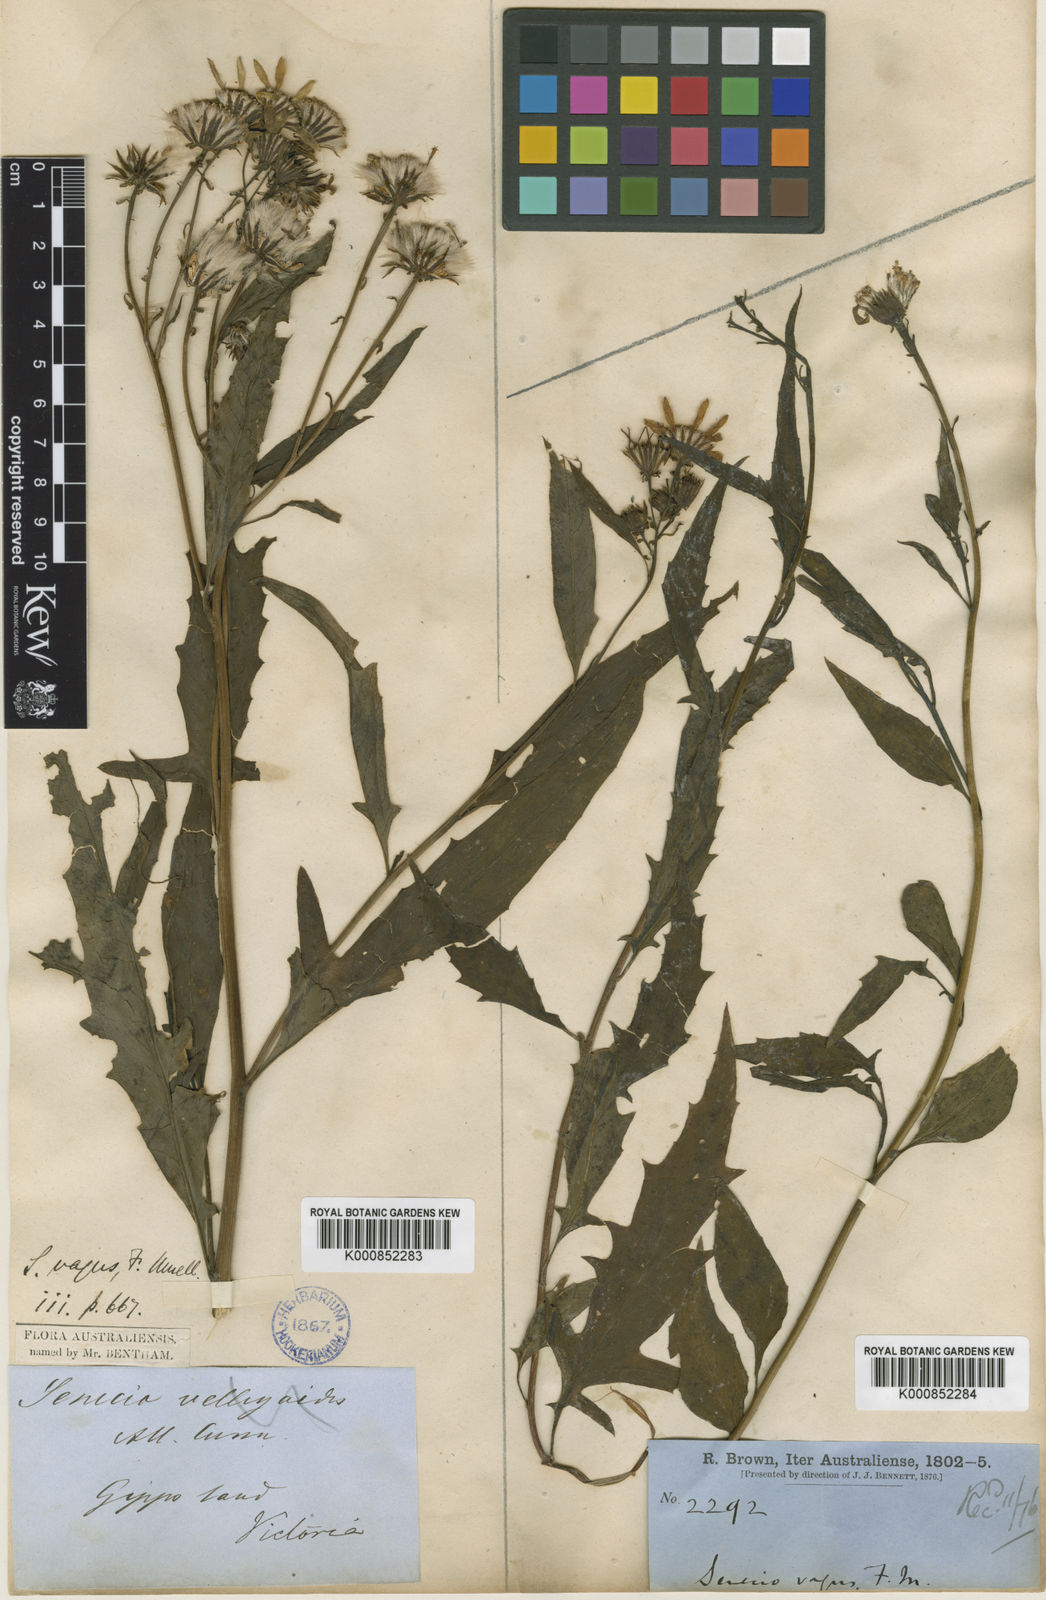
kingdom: Plantae
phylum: Tracheophyta
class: Magnoliopsida
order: Asterales
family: Asteraceae
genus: Senecio
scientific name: Senecio vagus
